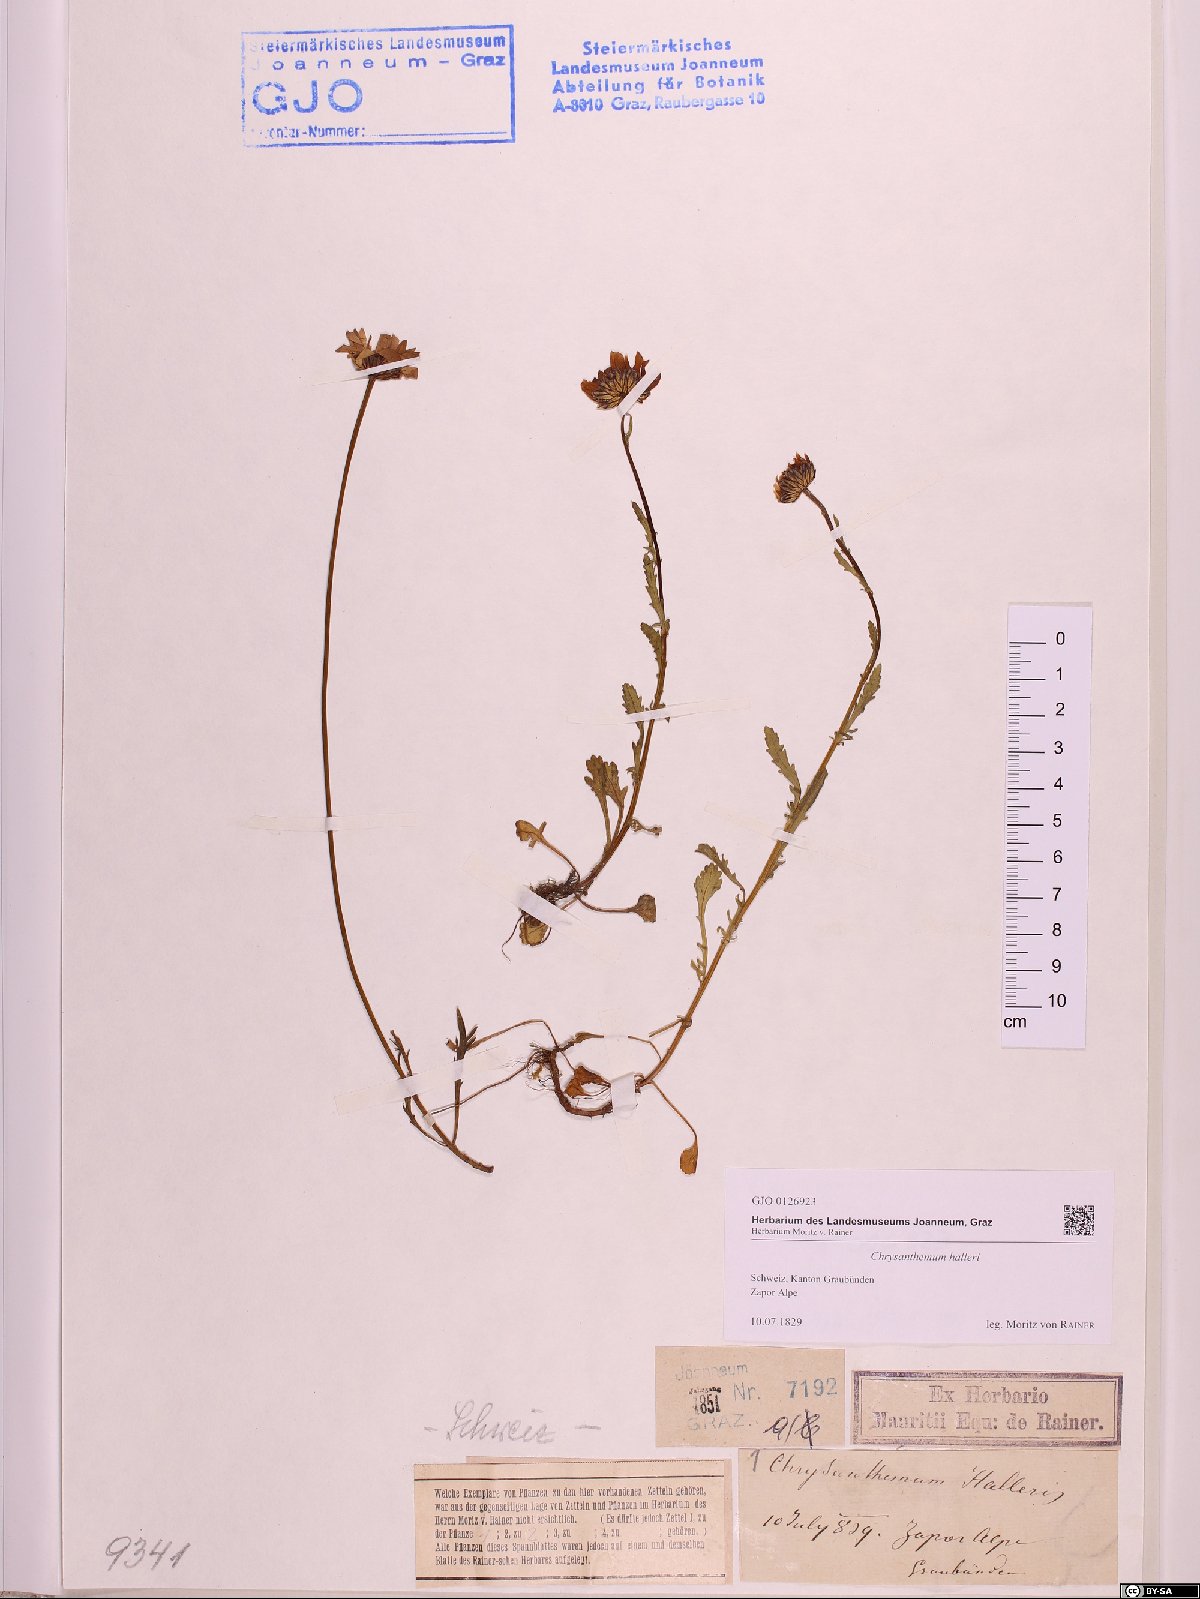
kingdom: Plantae
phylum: Tracheophyta
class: Magnoliopsida
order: Asterales
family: Asteraceae
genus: Leucanthemum
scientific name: Leucanthemum halleri
